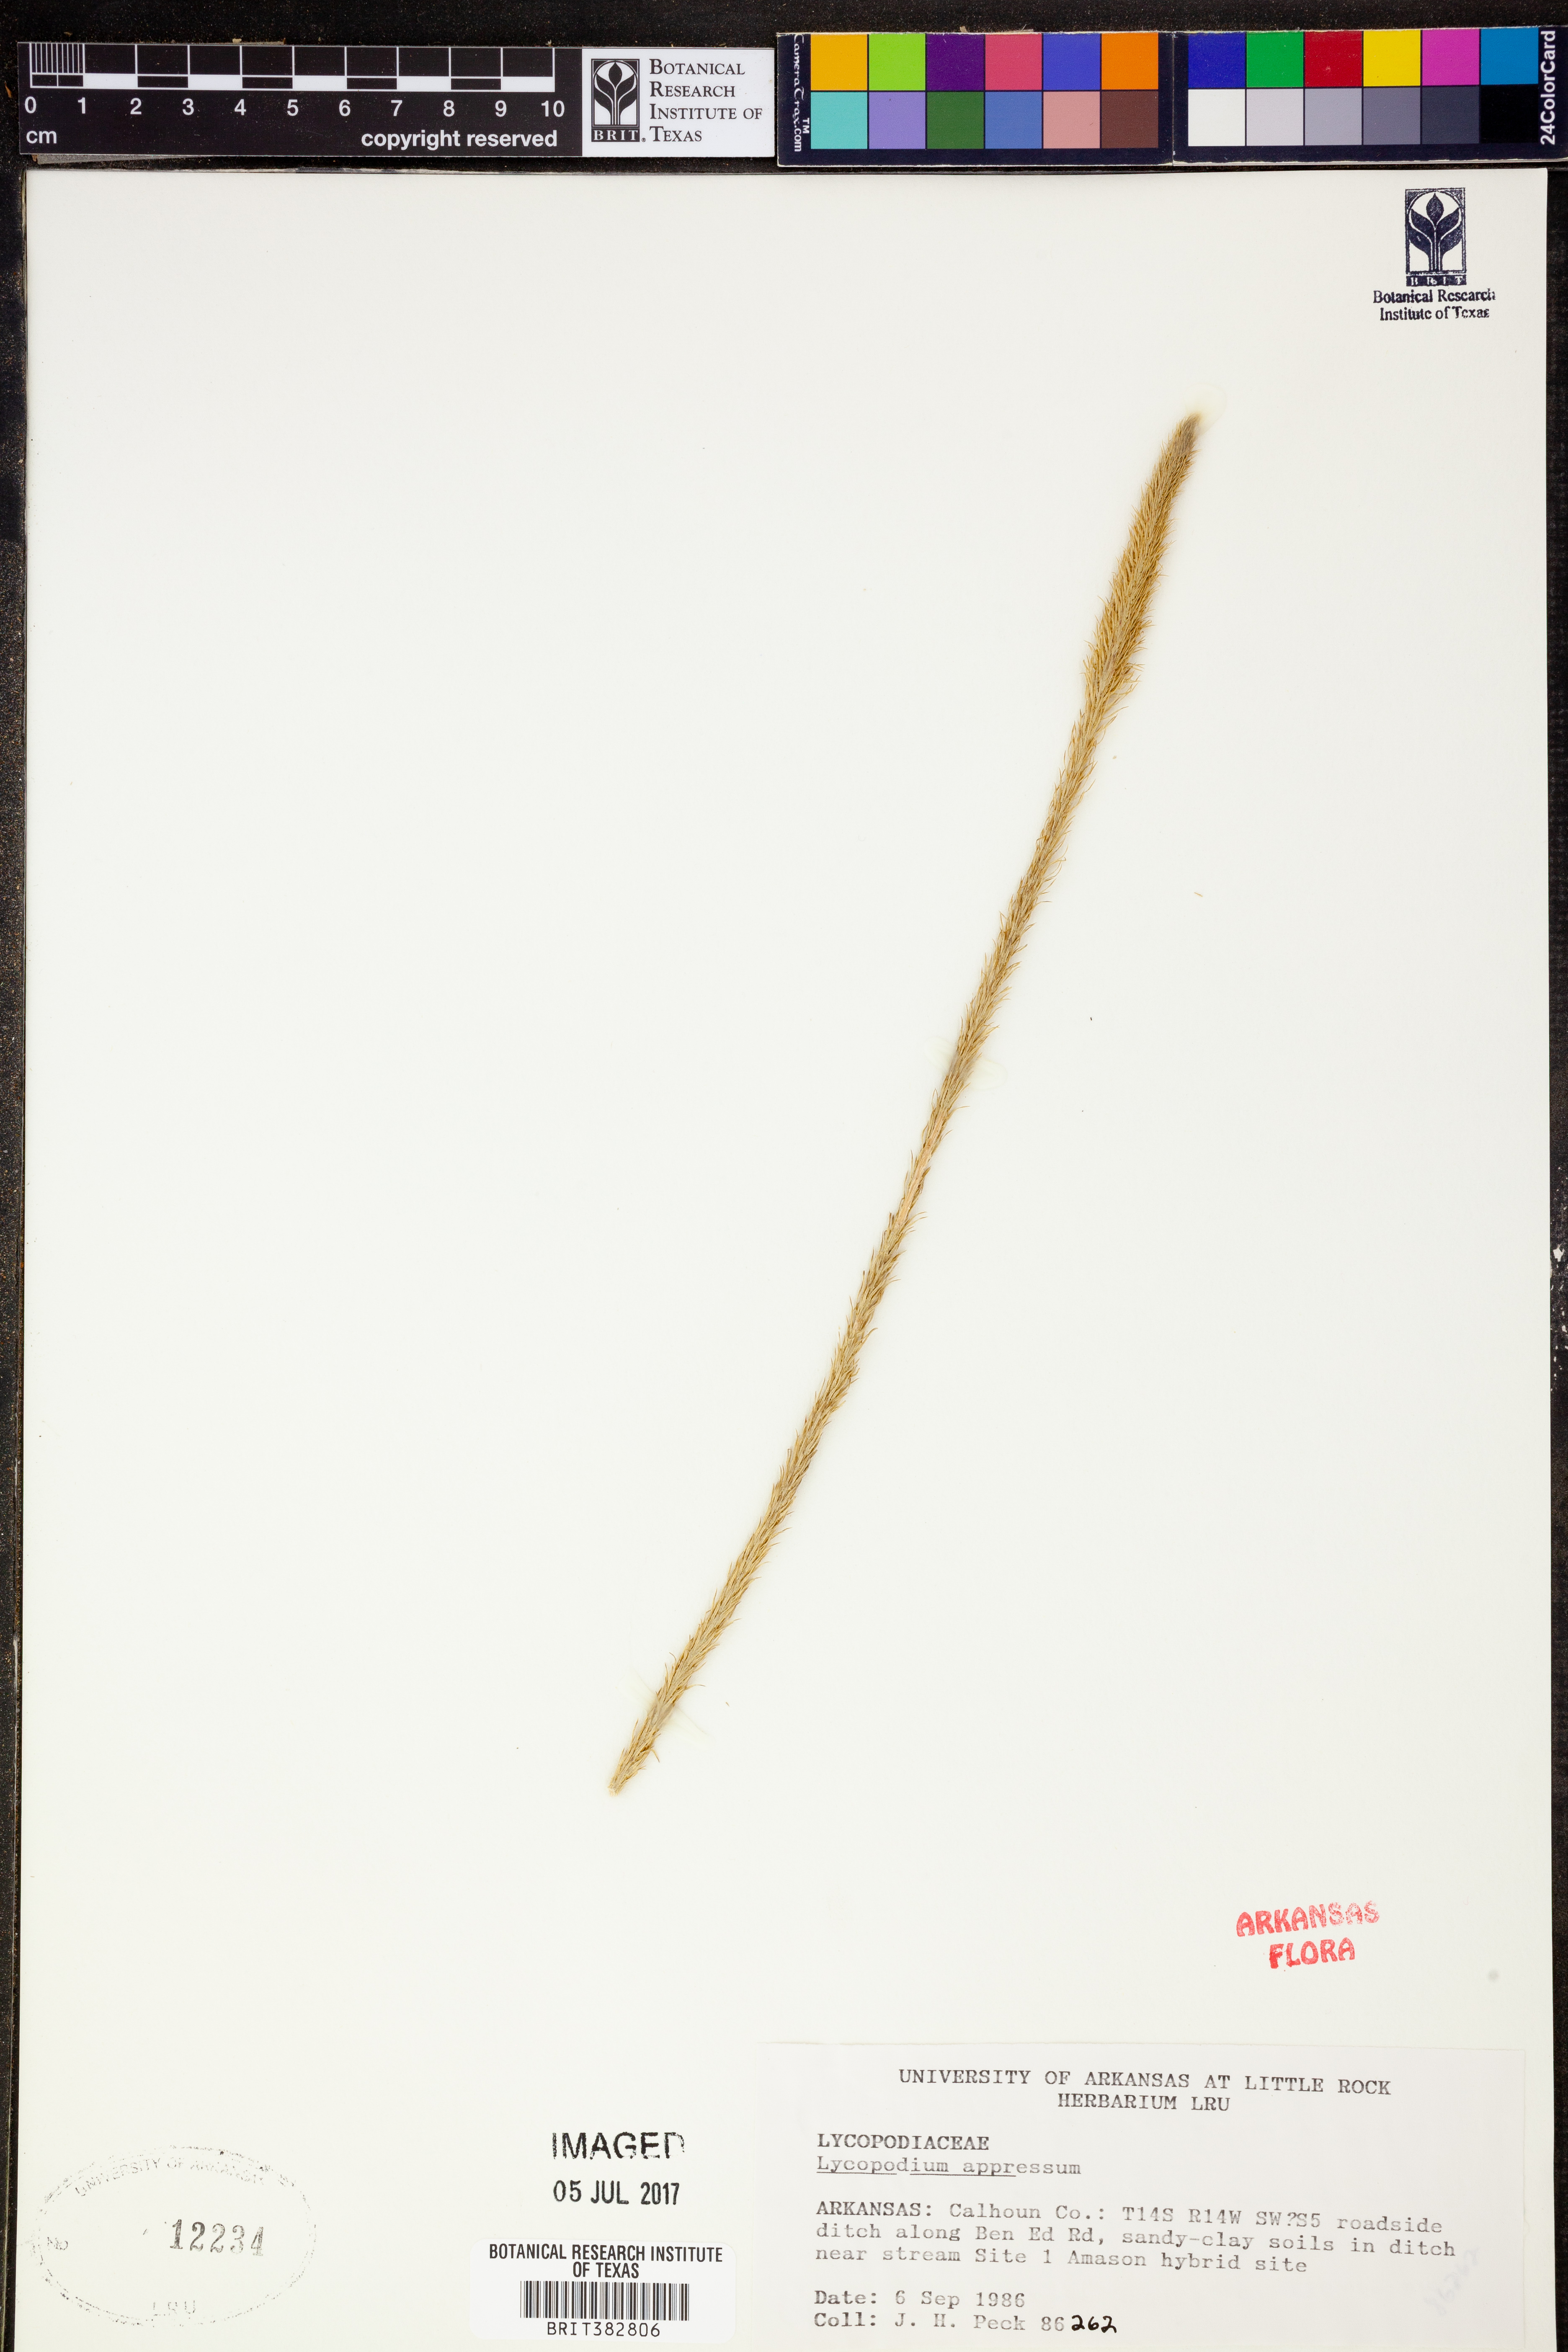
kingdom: Plantae
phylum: Tracheophyta
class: Lycopodiopsida
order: Lycopodiales
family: Lycopodiaceae
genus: Lycopodiella
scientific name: Lycopodiella appressa
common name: Appressed bog clubmoss
